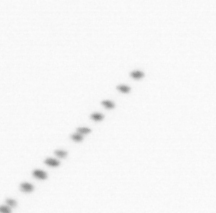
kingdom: Chromista
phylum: Ochrophyta
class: Bacillariophyceae
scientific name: Bacillariophyceae
